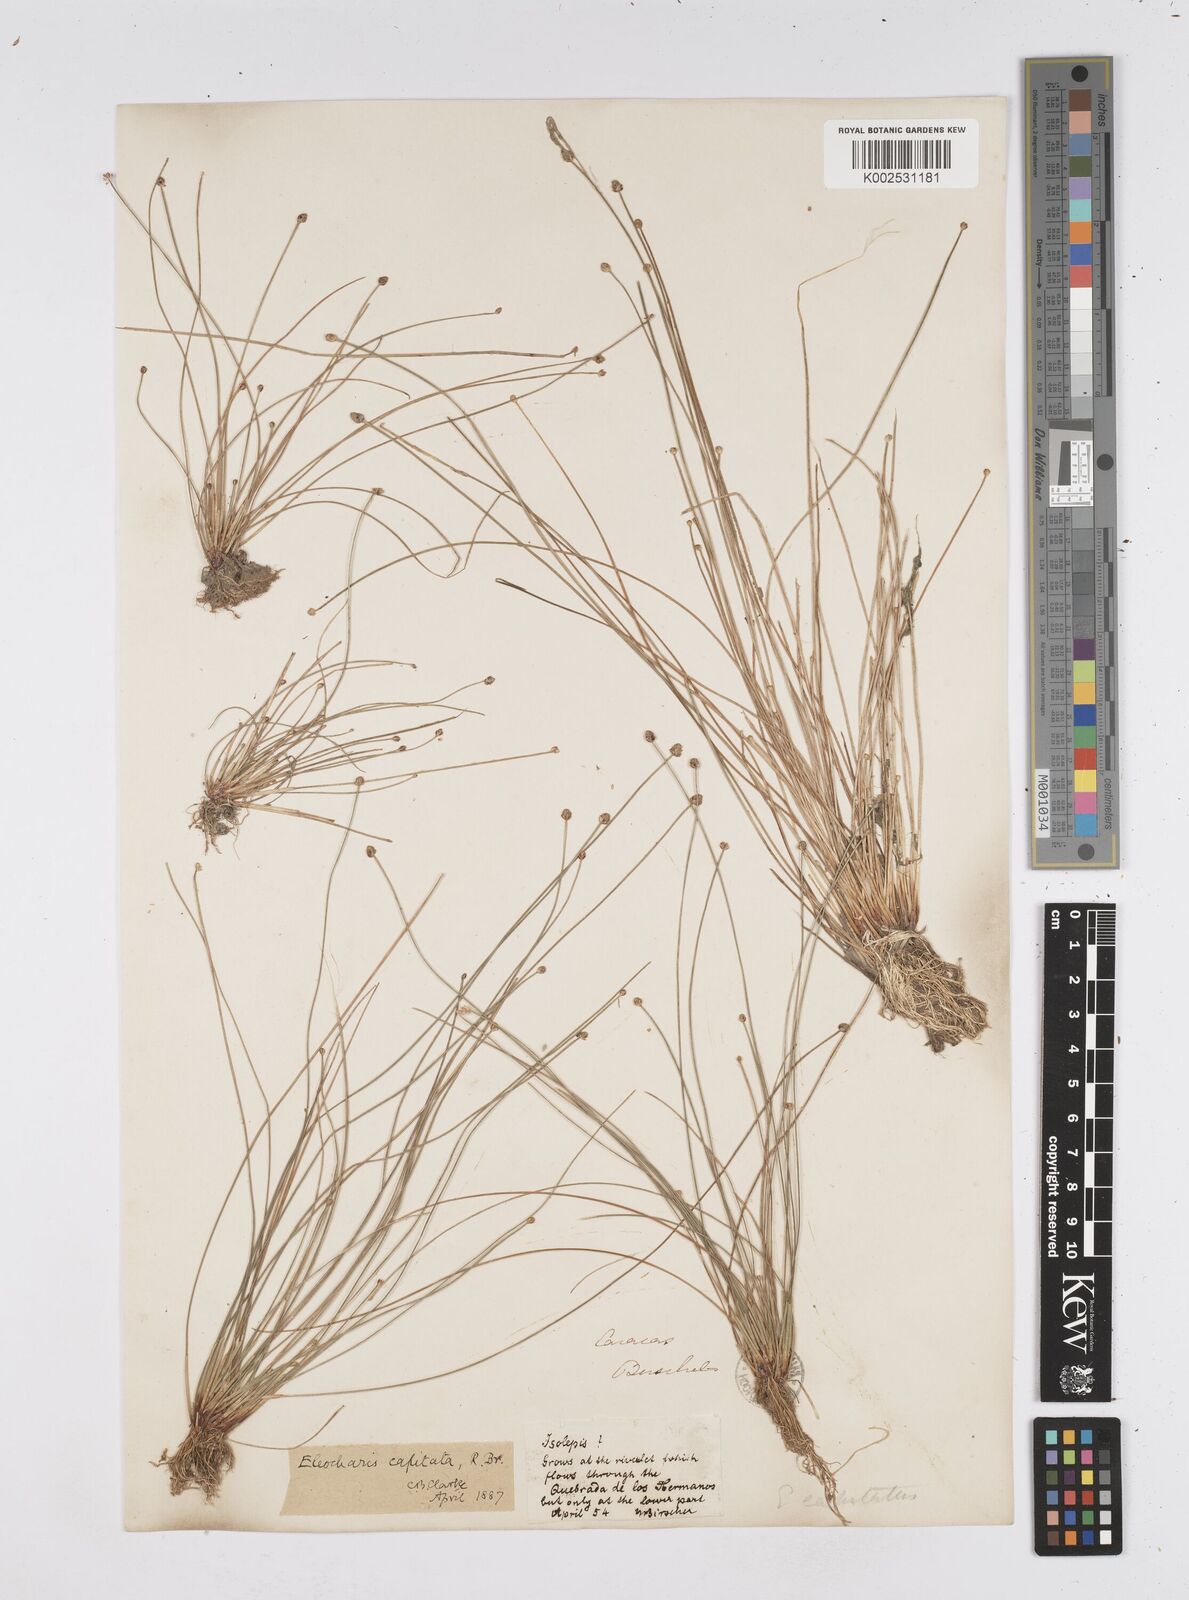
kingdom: Plantae
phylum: Tracheophyta
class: Liliopsida
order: Poales
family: Cyperaceae
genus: Eleocharis
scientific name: Eleocharis geniculata
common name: Canada spikesedge
